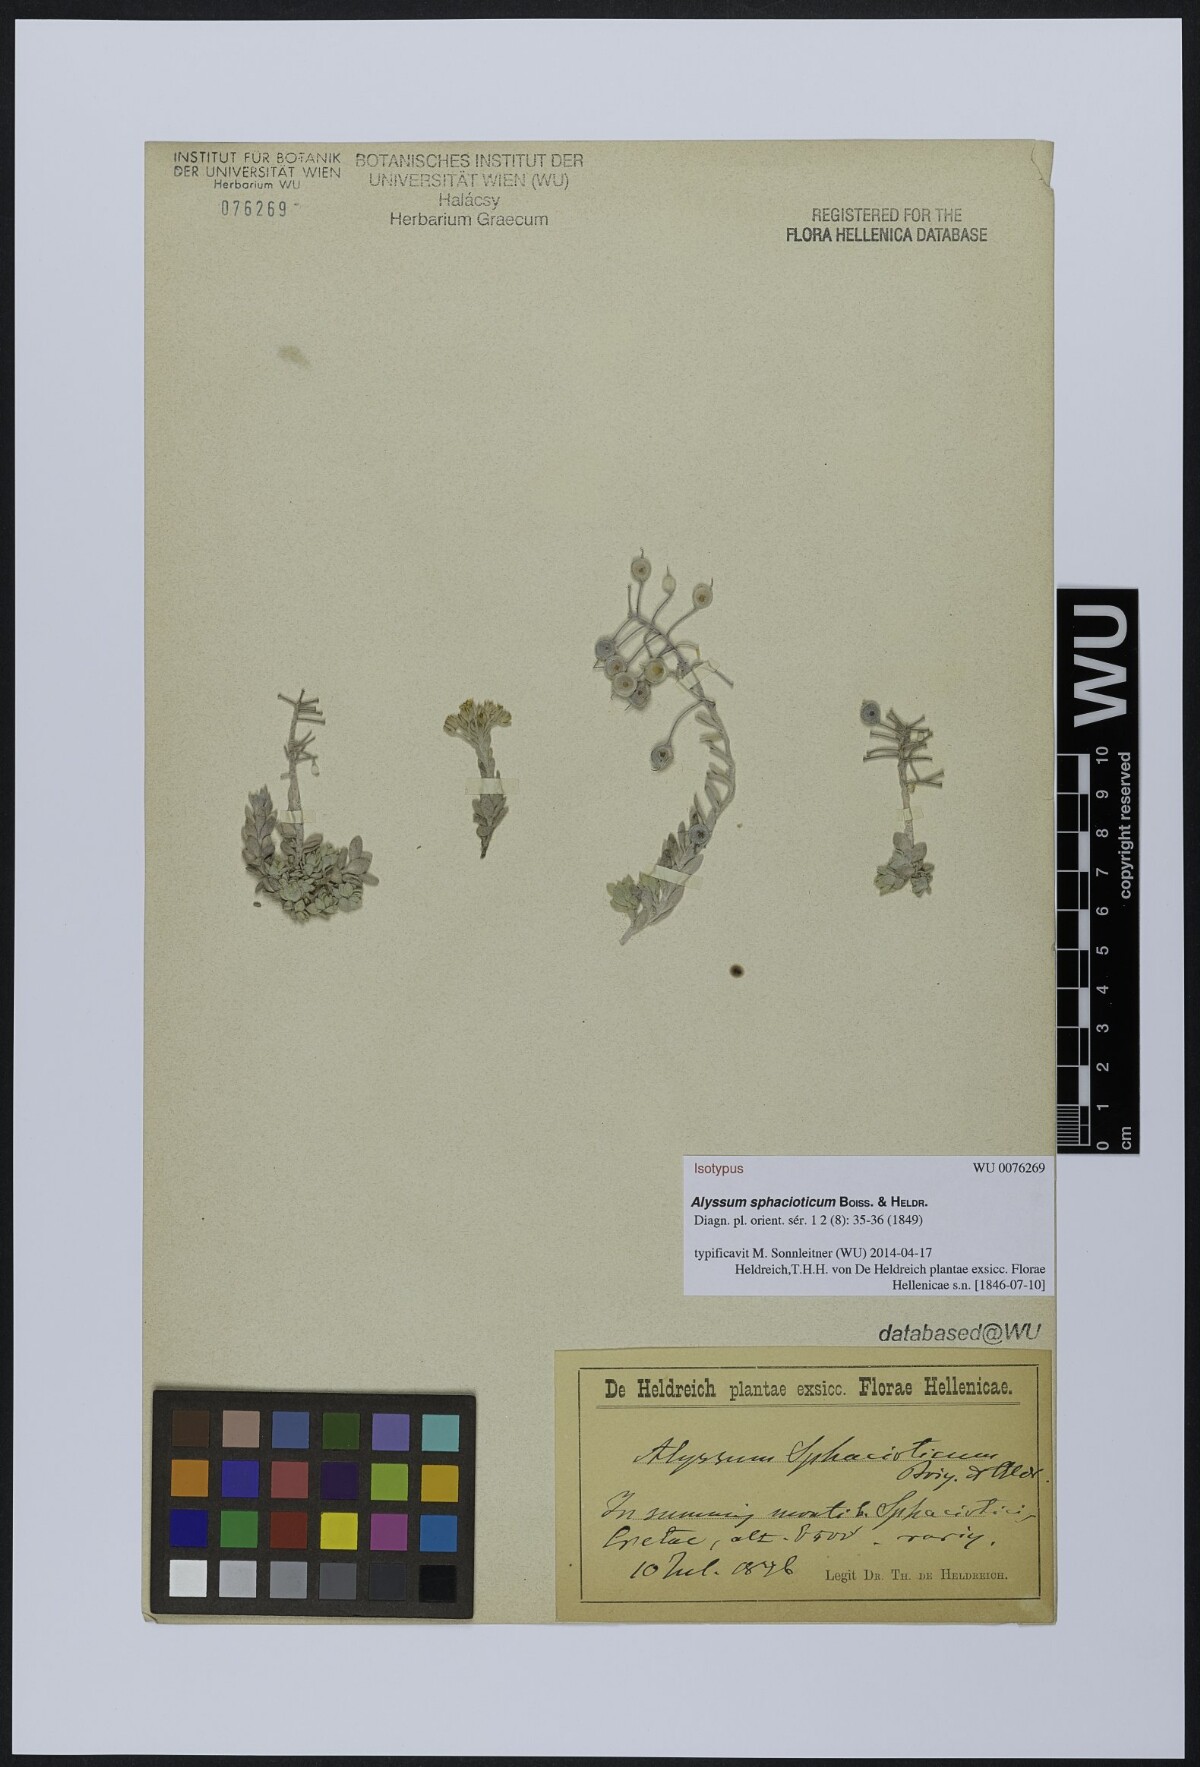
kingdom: Plantae
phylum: Tracheophyta
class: Magnoliopsida
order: Brassicales
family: Brassicaceae
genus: Alyssum
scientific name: Alyssum sphacioticum
